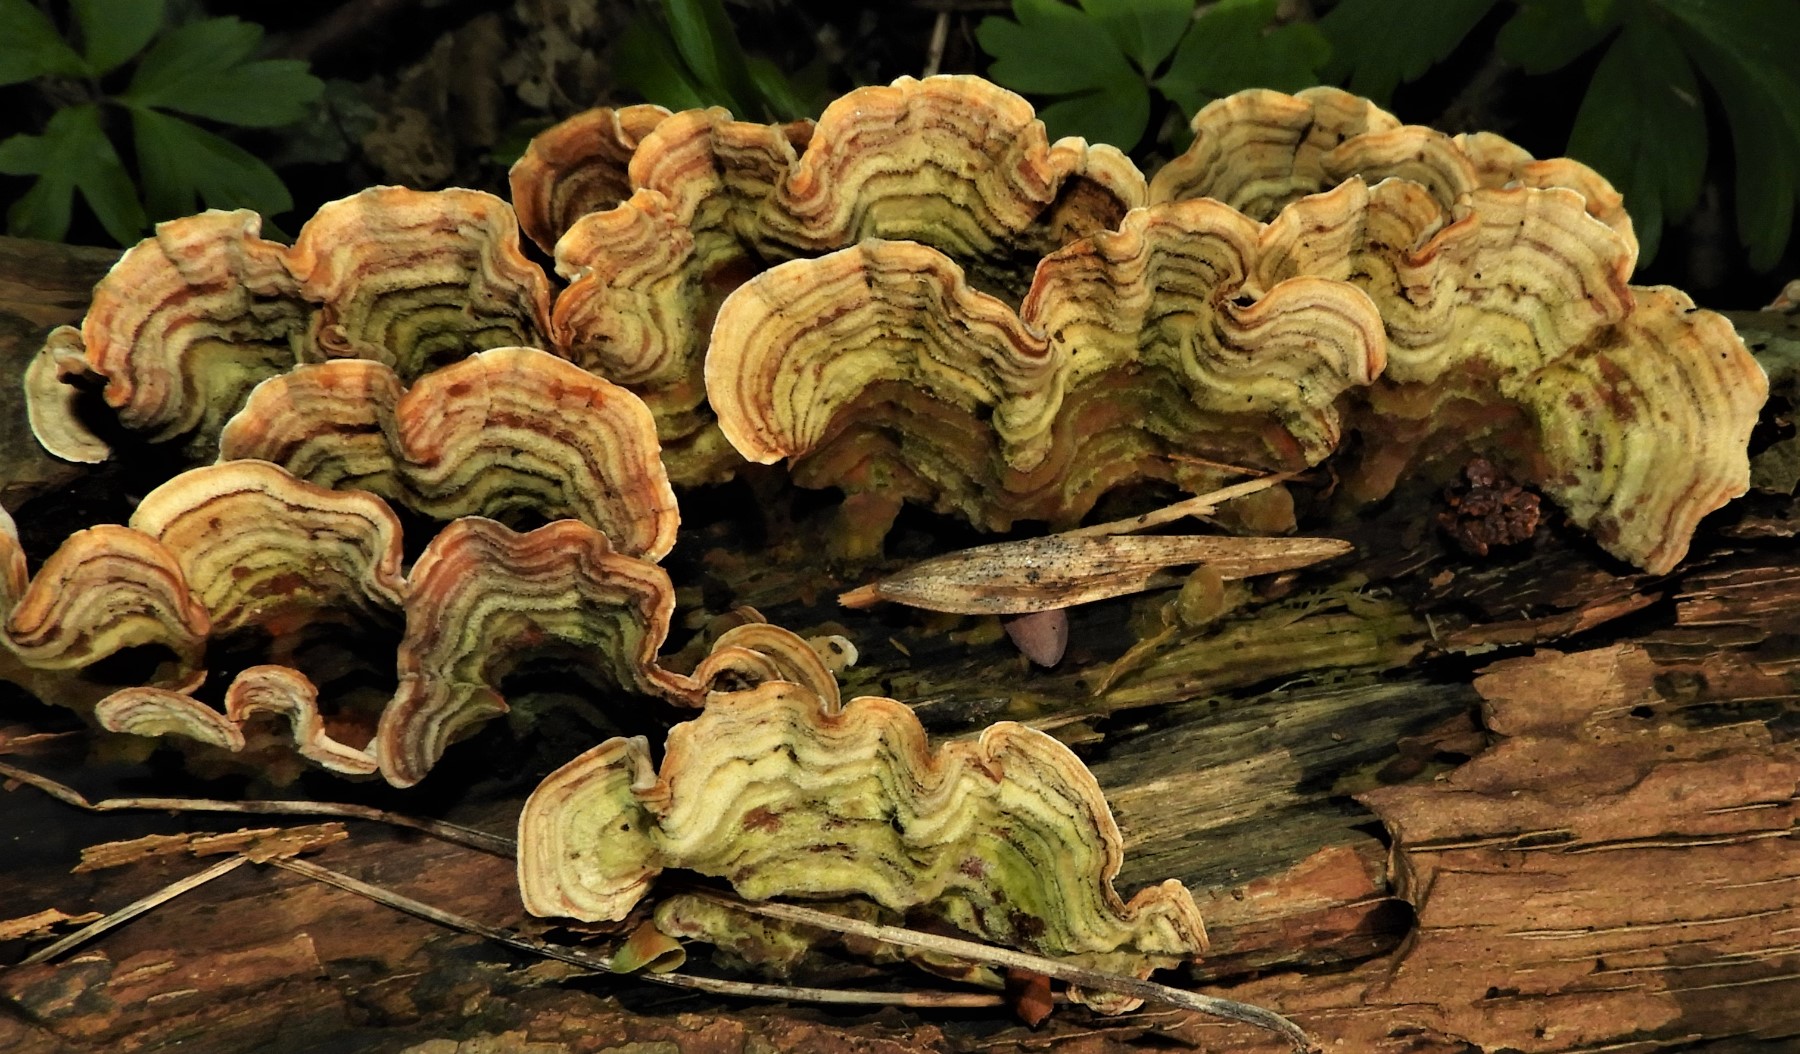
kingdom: Fungi
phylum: Basidiomycota
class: Agaricomycetes
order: Russulales
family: Stereaceae
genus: Stereum
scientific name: Stereum subtomentosum
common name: smuk lædersvamp
